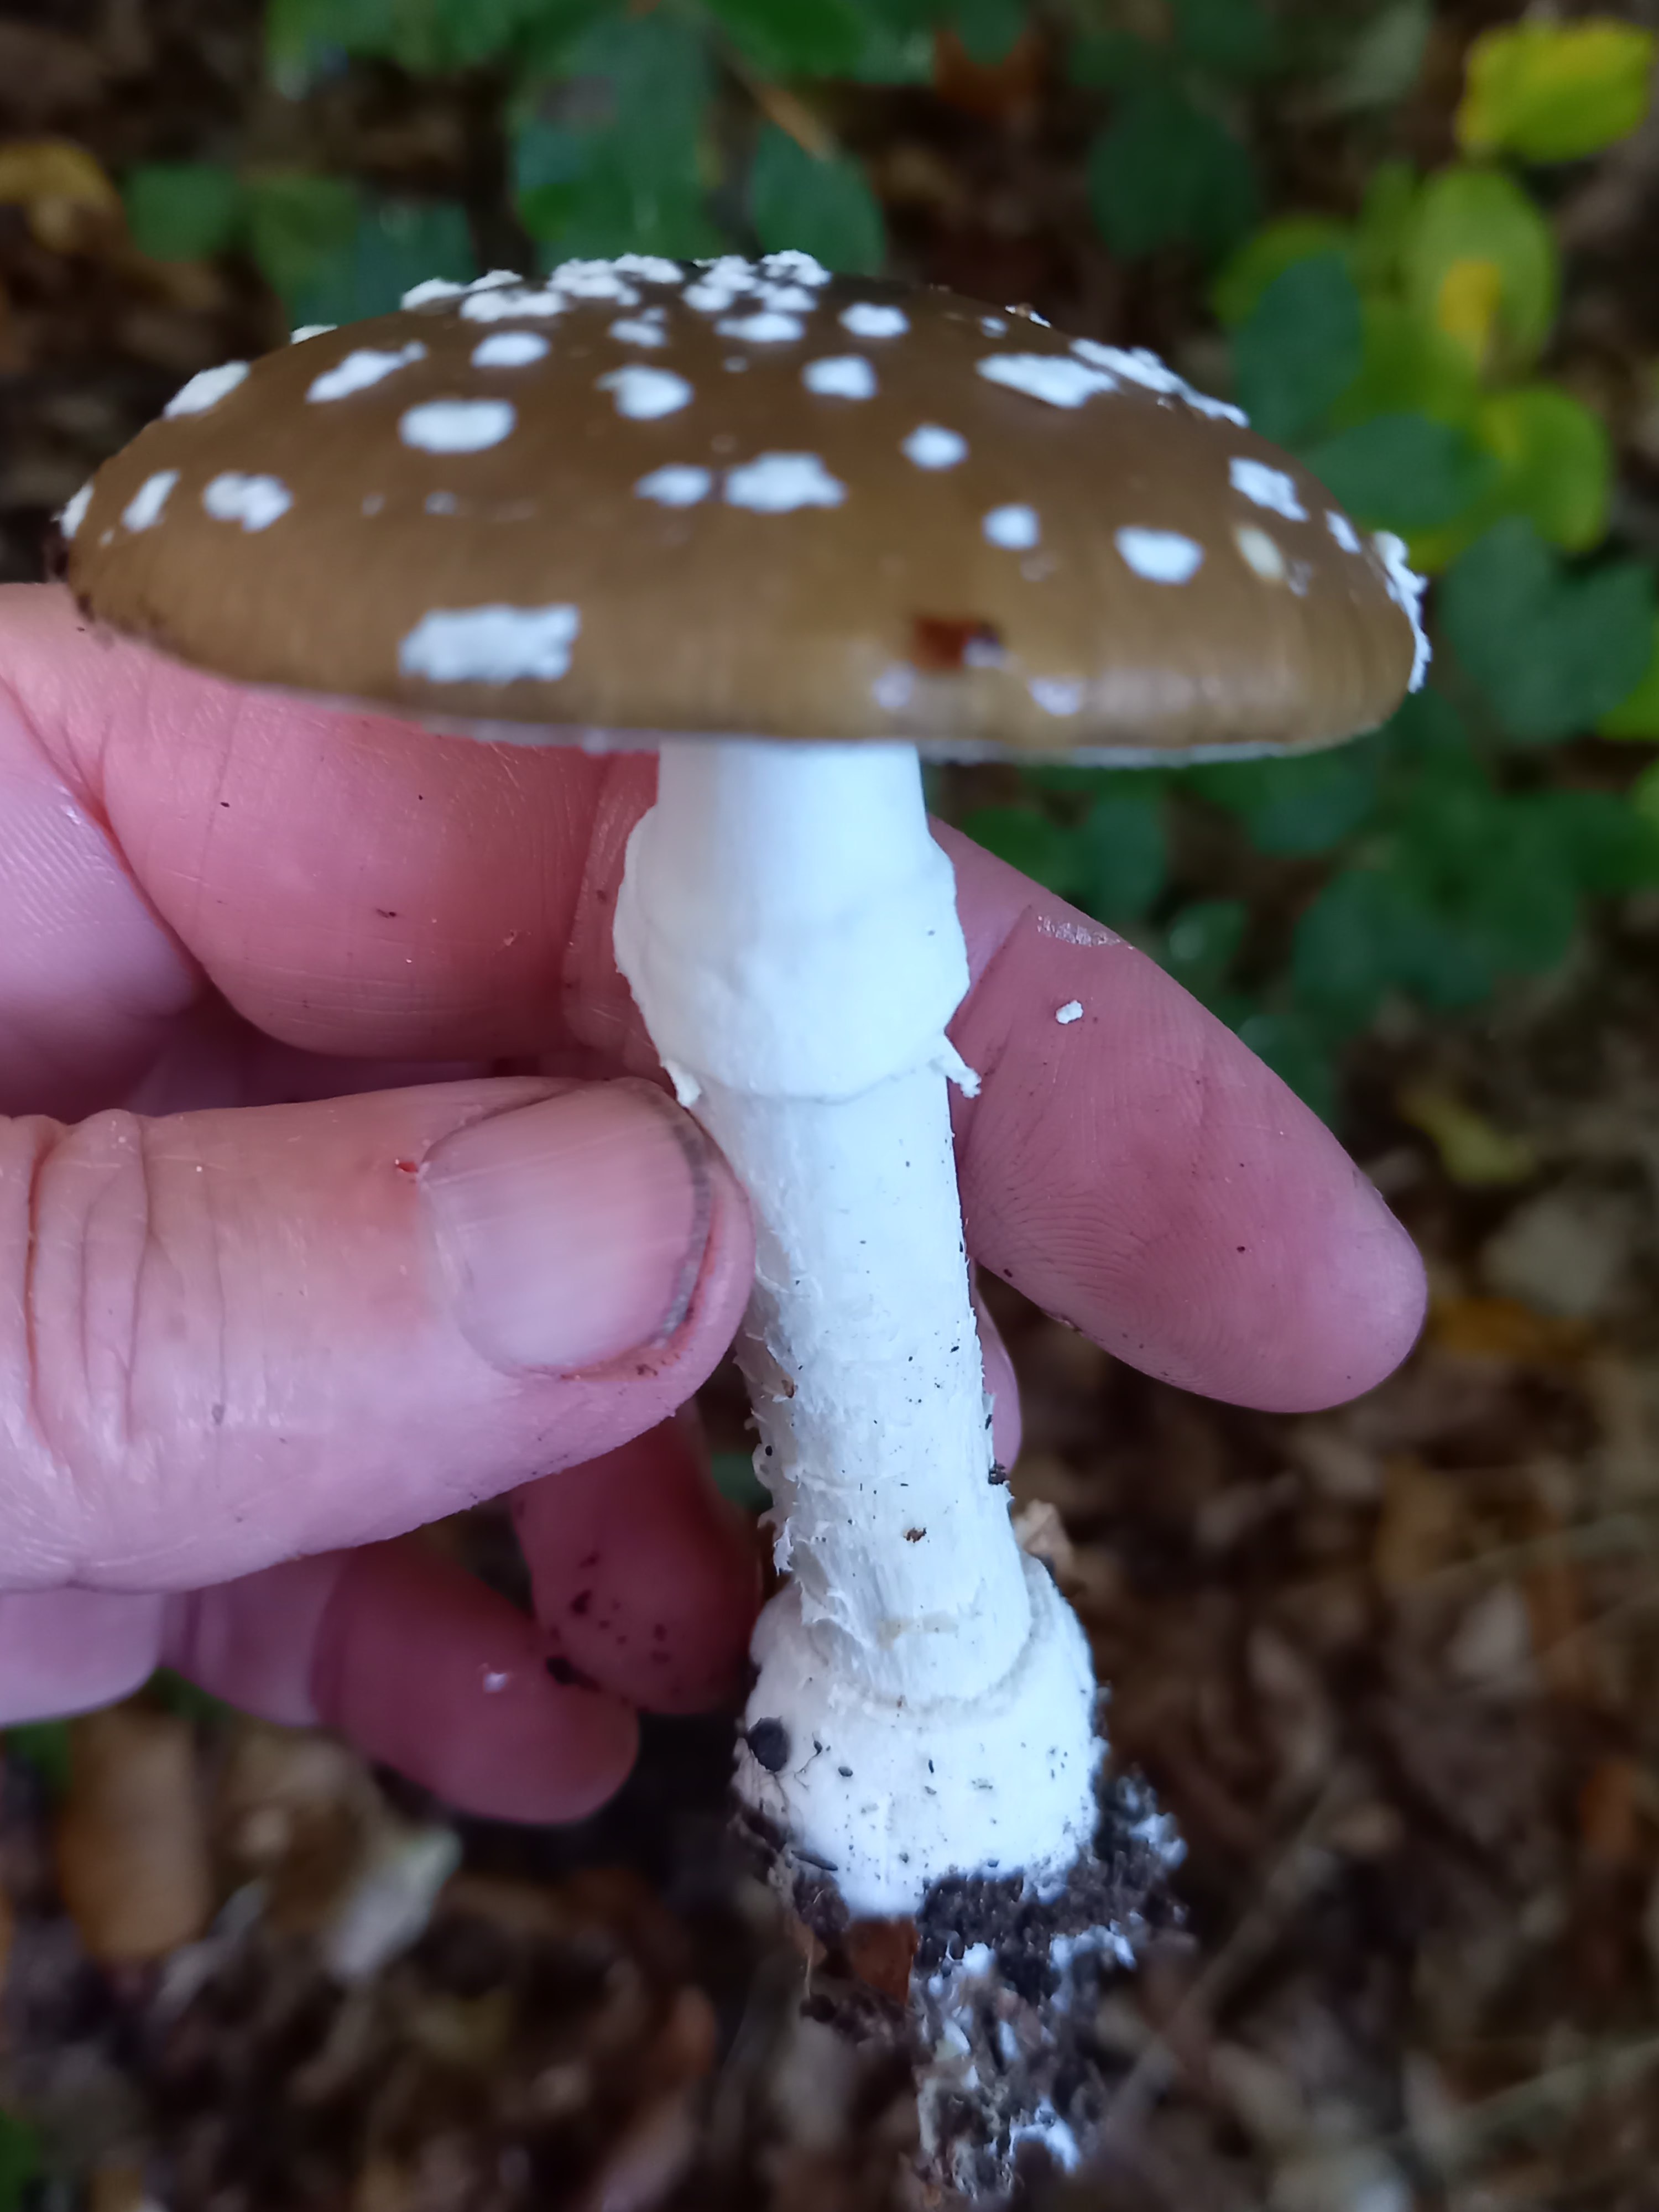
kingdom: Fungi
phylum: Basidiomycota
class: Agaricomycetes
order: Agaricales
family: Amanitaceae
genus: Amanita
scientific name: Amanita pantherina
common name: panter-fluesvamp
